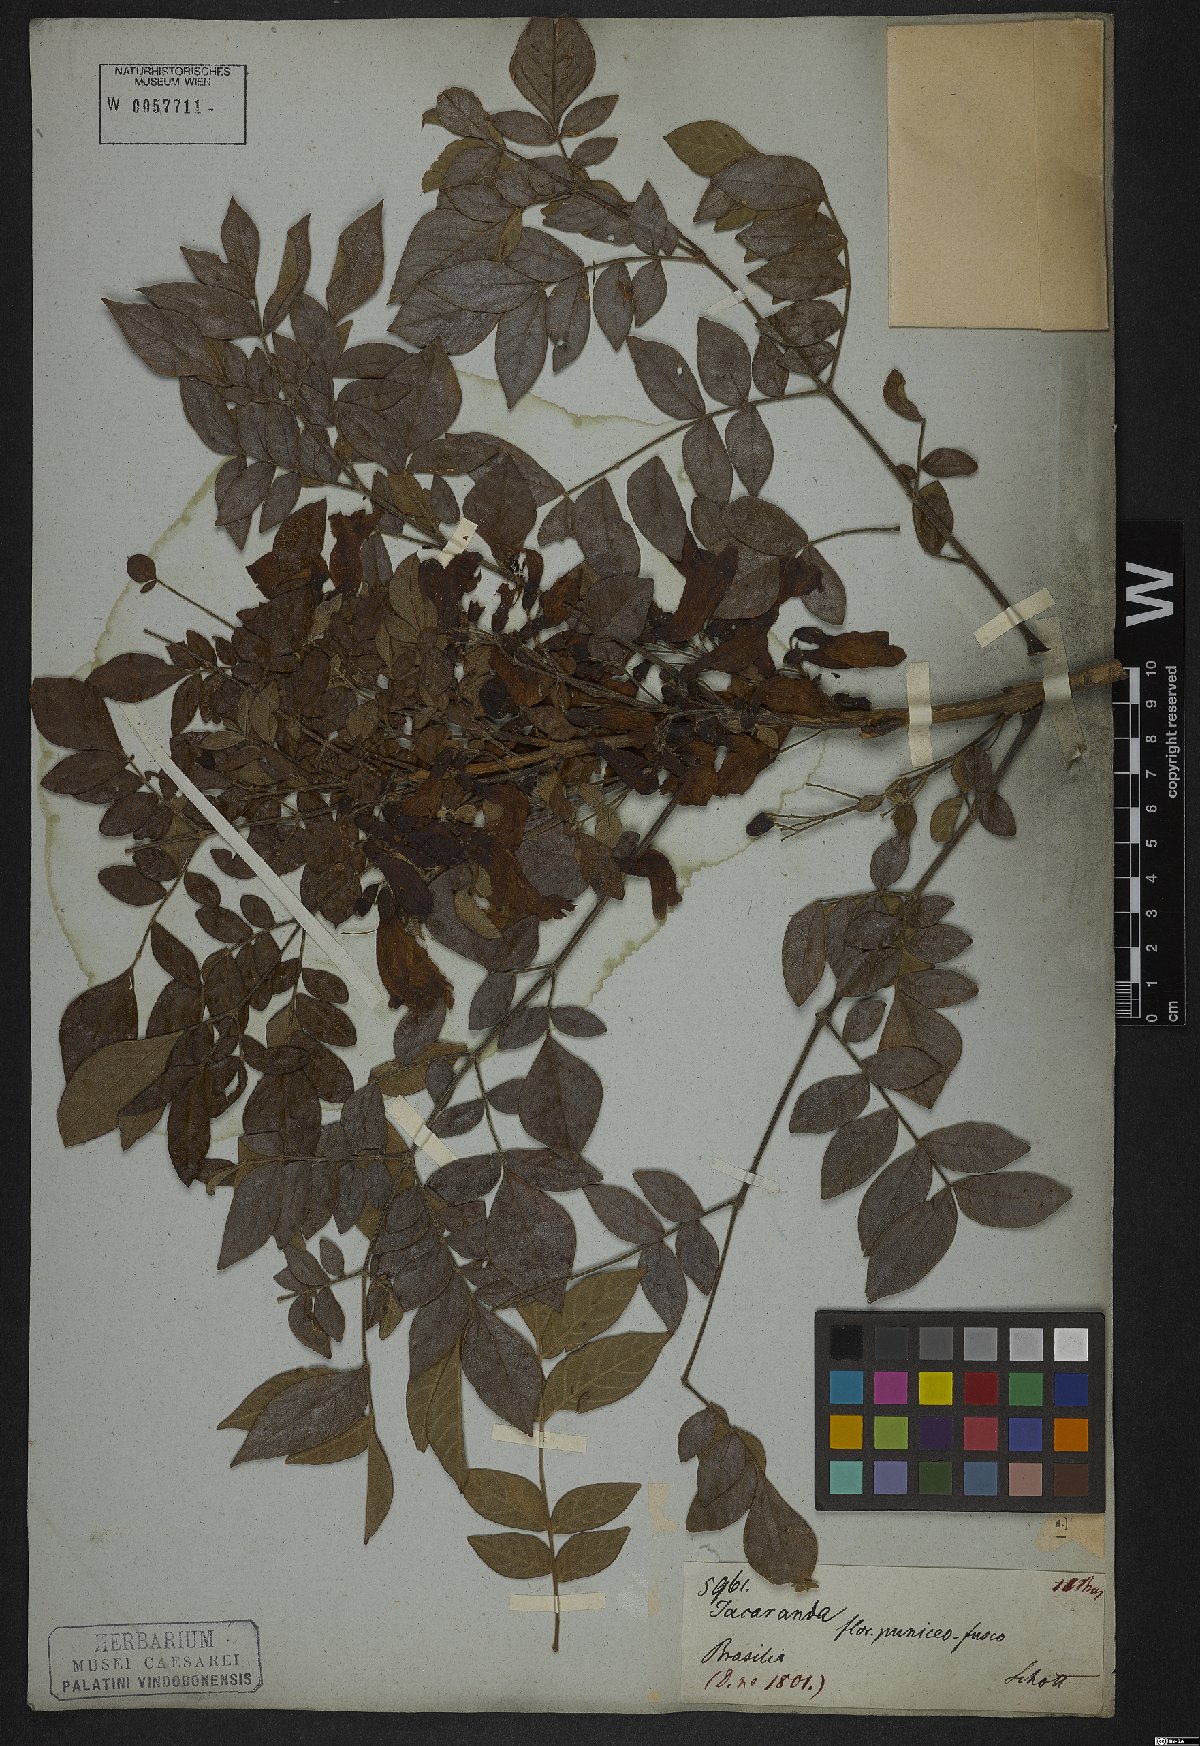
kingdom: Plantae
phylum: Tracheophyta
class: Magnoliopsida
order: Lamiales
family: Bignoniaceae
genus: Jacaranda
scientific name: Jacaranda jasminoides
